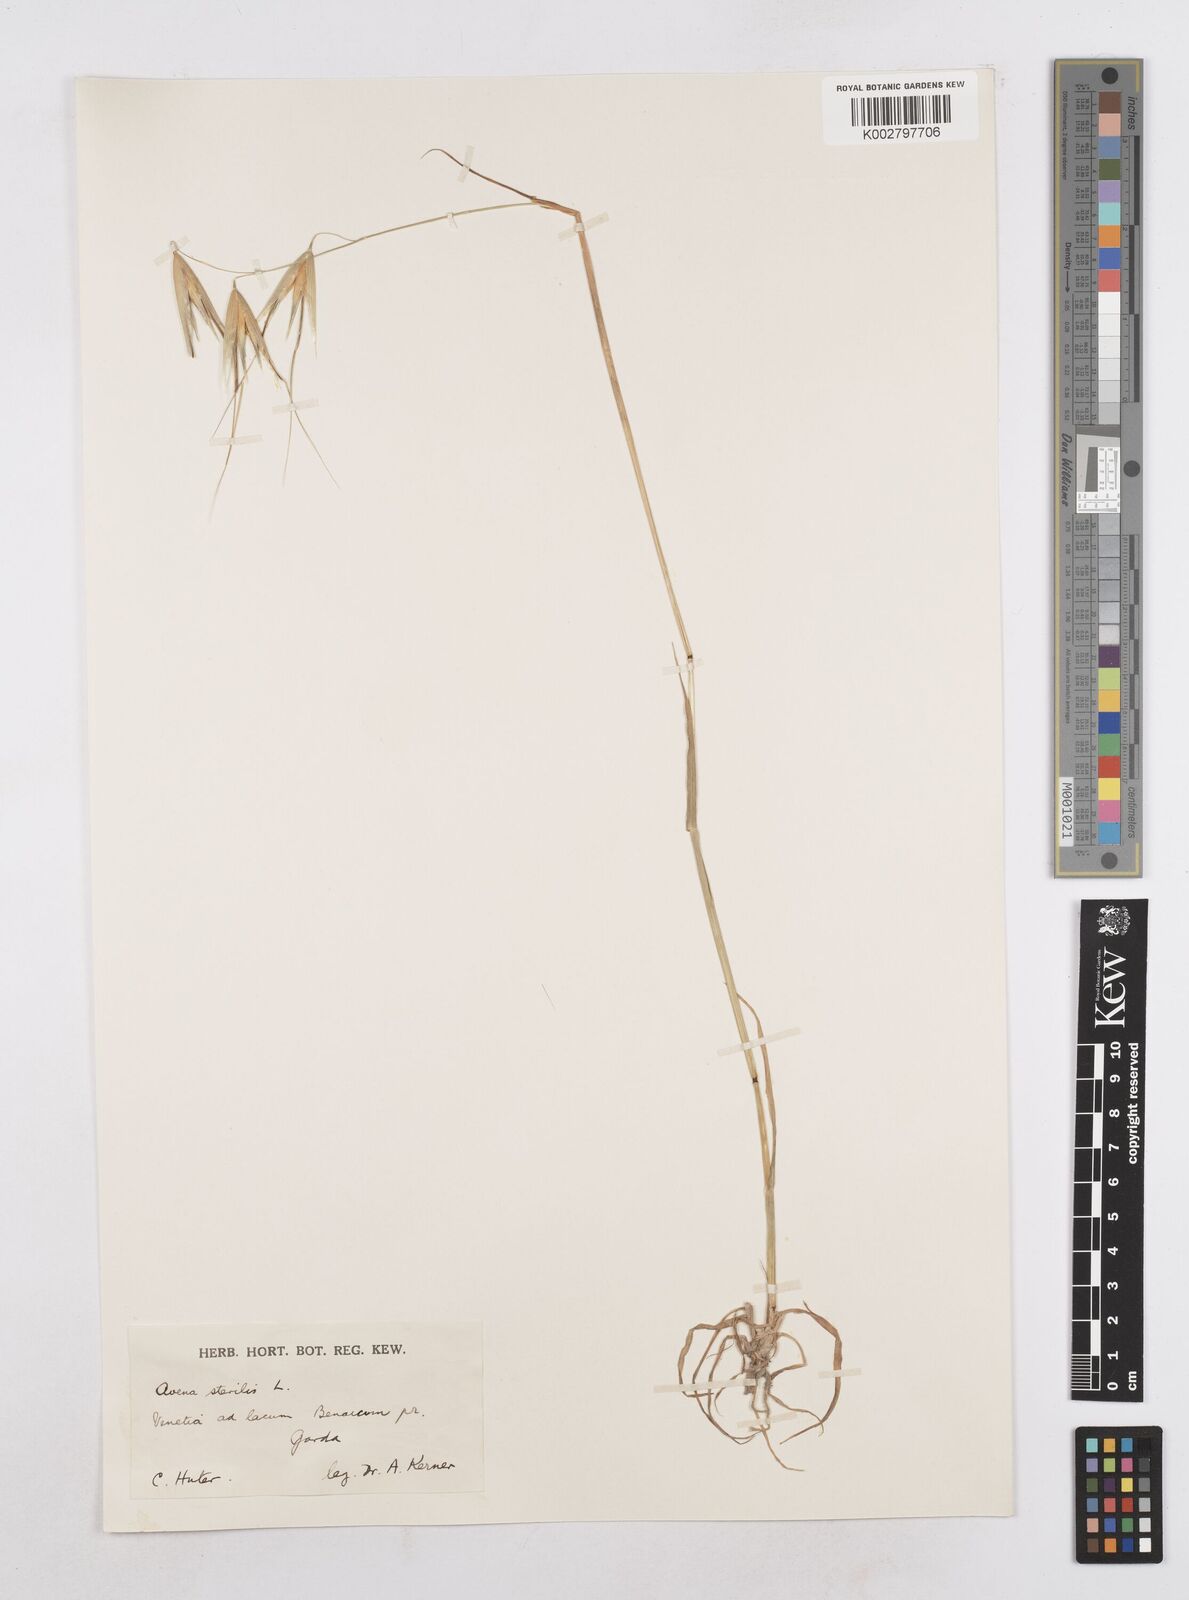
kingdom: Plantae
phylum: Tracheophyta
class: Liliopsida
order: Poales
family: Poaceae
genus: Avena
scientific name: Avena sterilis
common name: Animated oat
